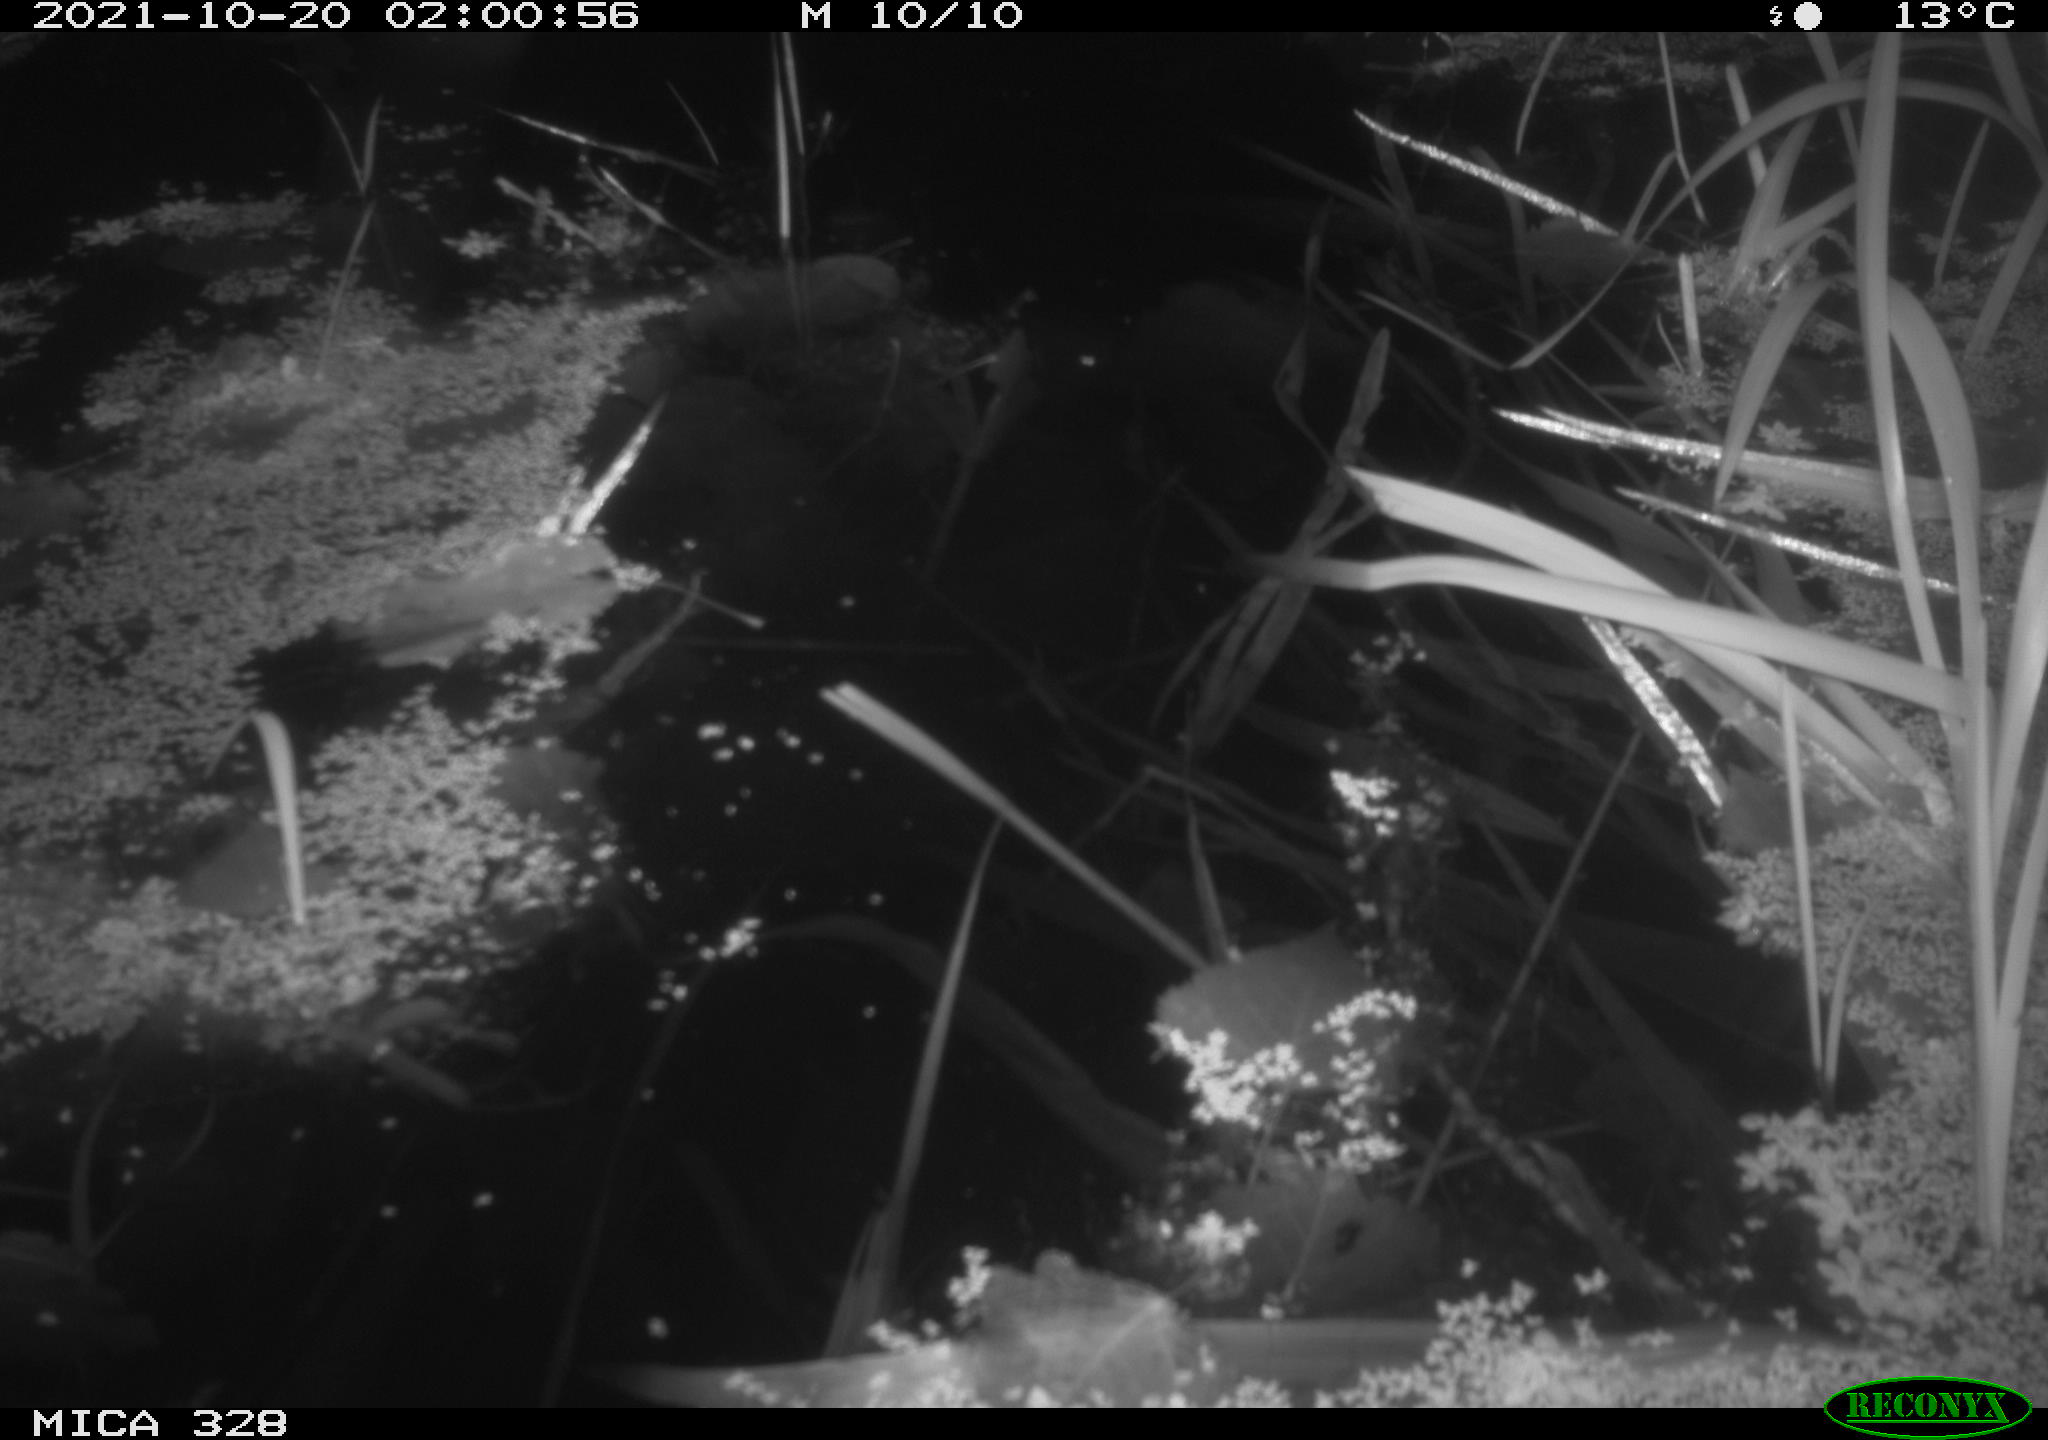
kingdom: Animalia
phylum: Chordata
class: Mammalia
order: Rodentia
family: Cricetidae
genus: Ondatra
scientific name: Ondatra zibethicus
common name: Muskrat
